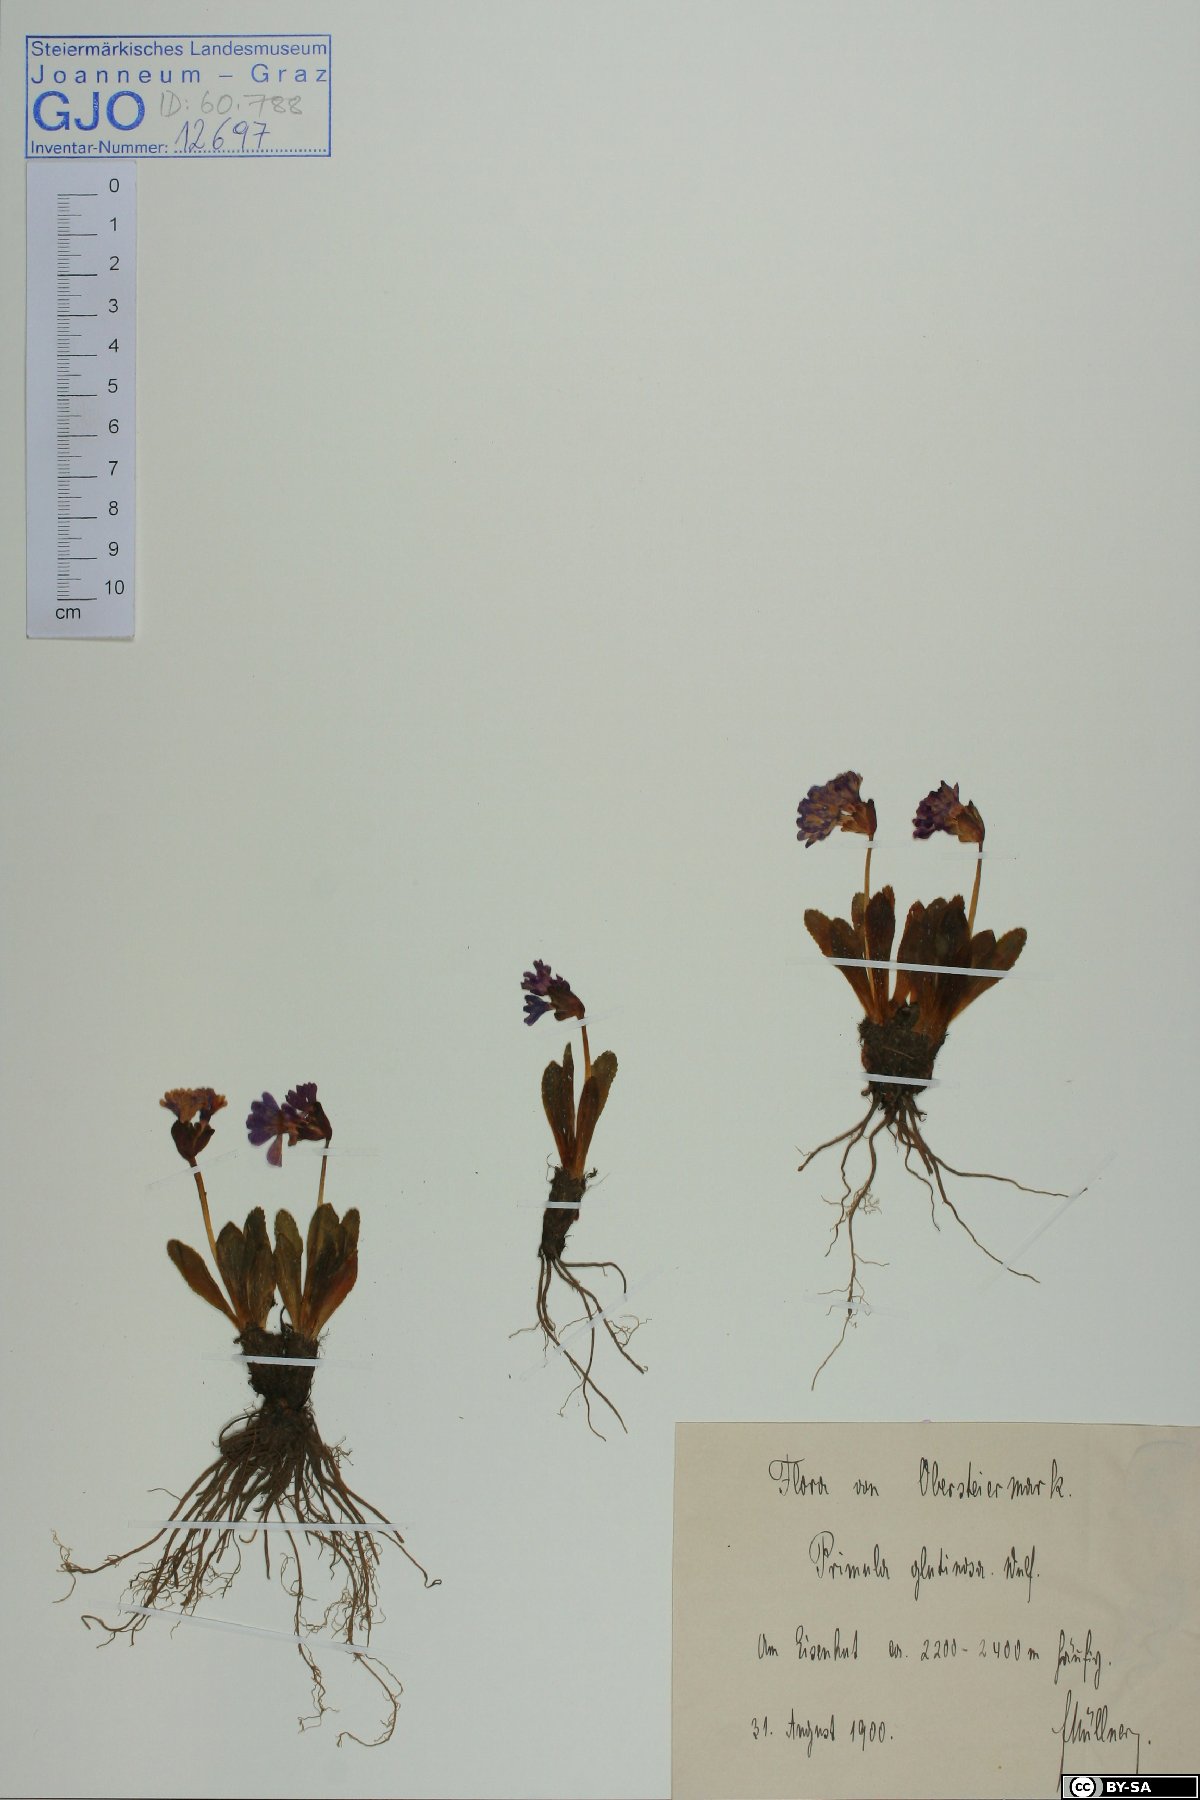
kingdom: Plantae
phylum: Tracheophyta
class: Magnoliopsida
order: Ericales
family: Primulaceae
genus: Primula
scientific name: Primula glutinosa
